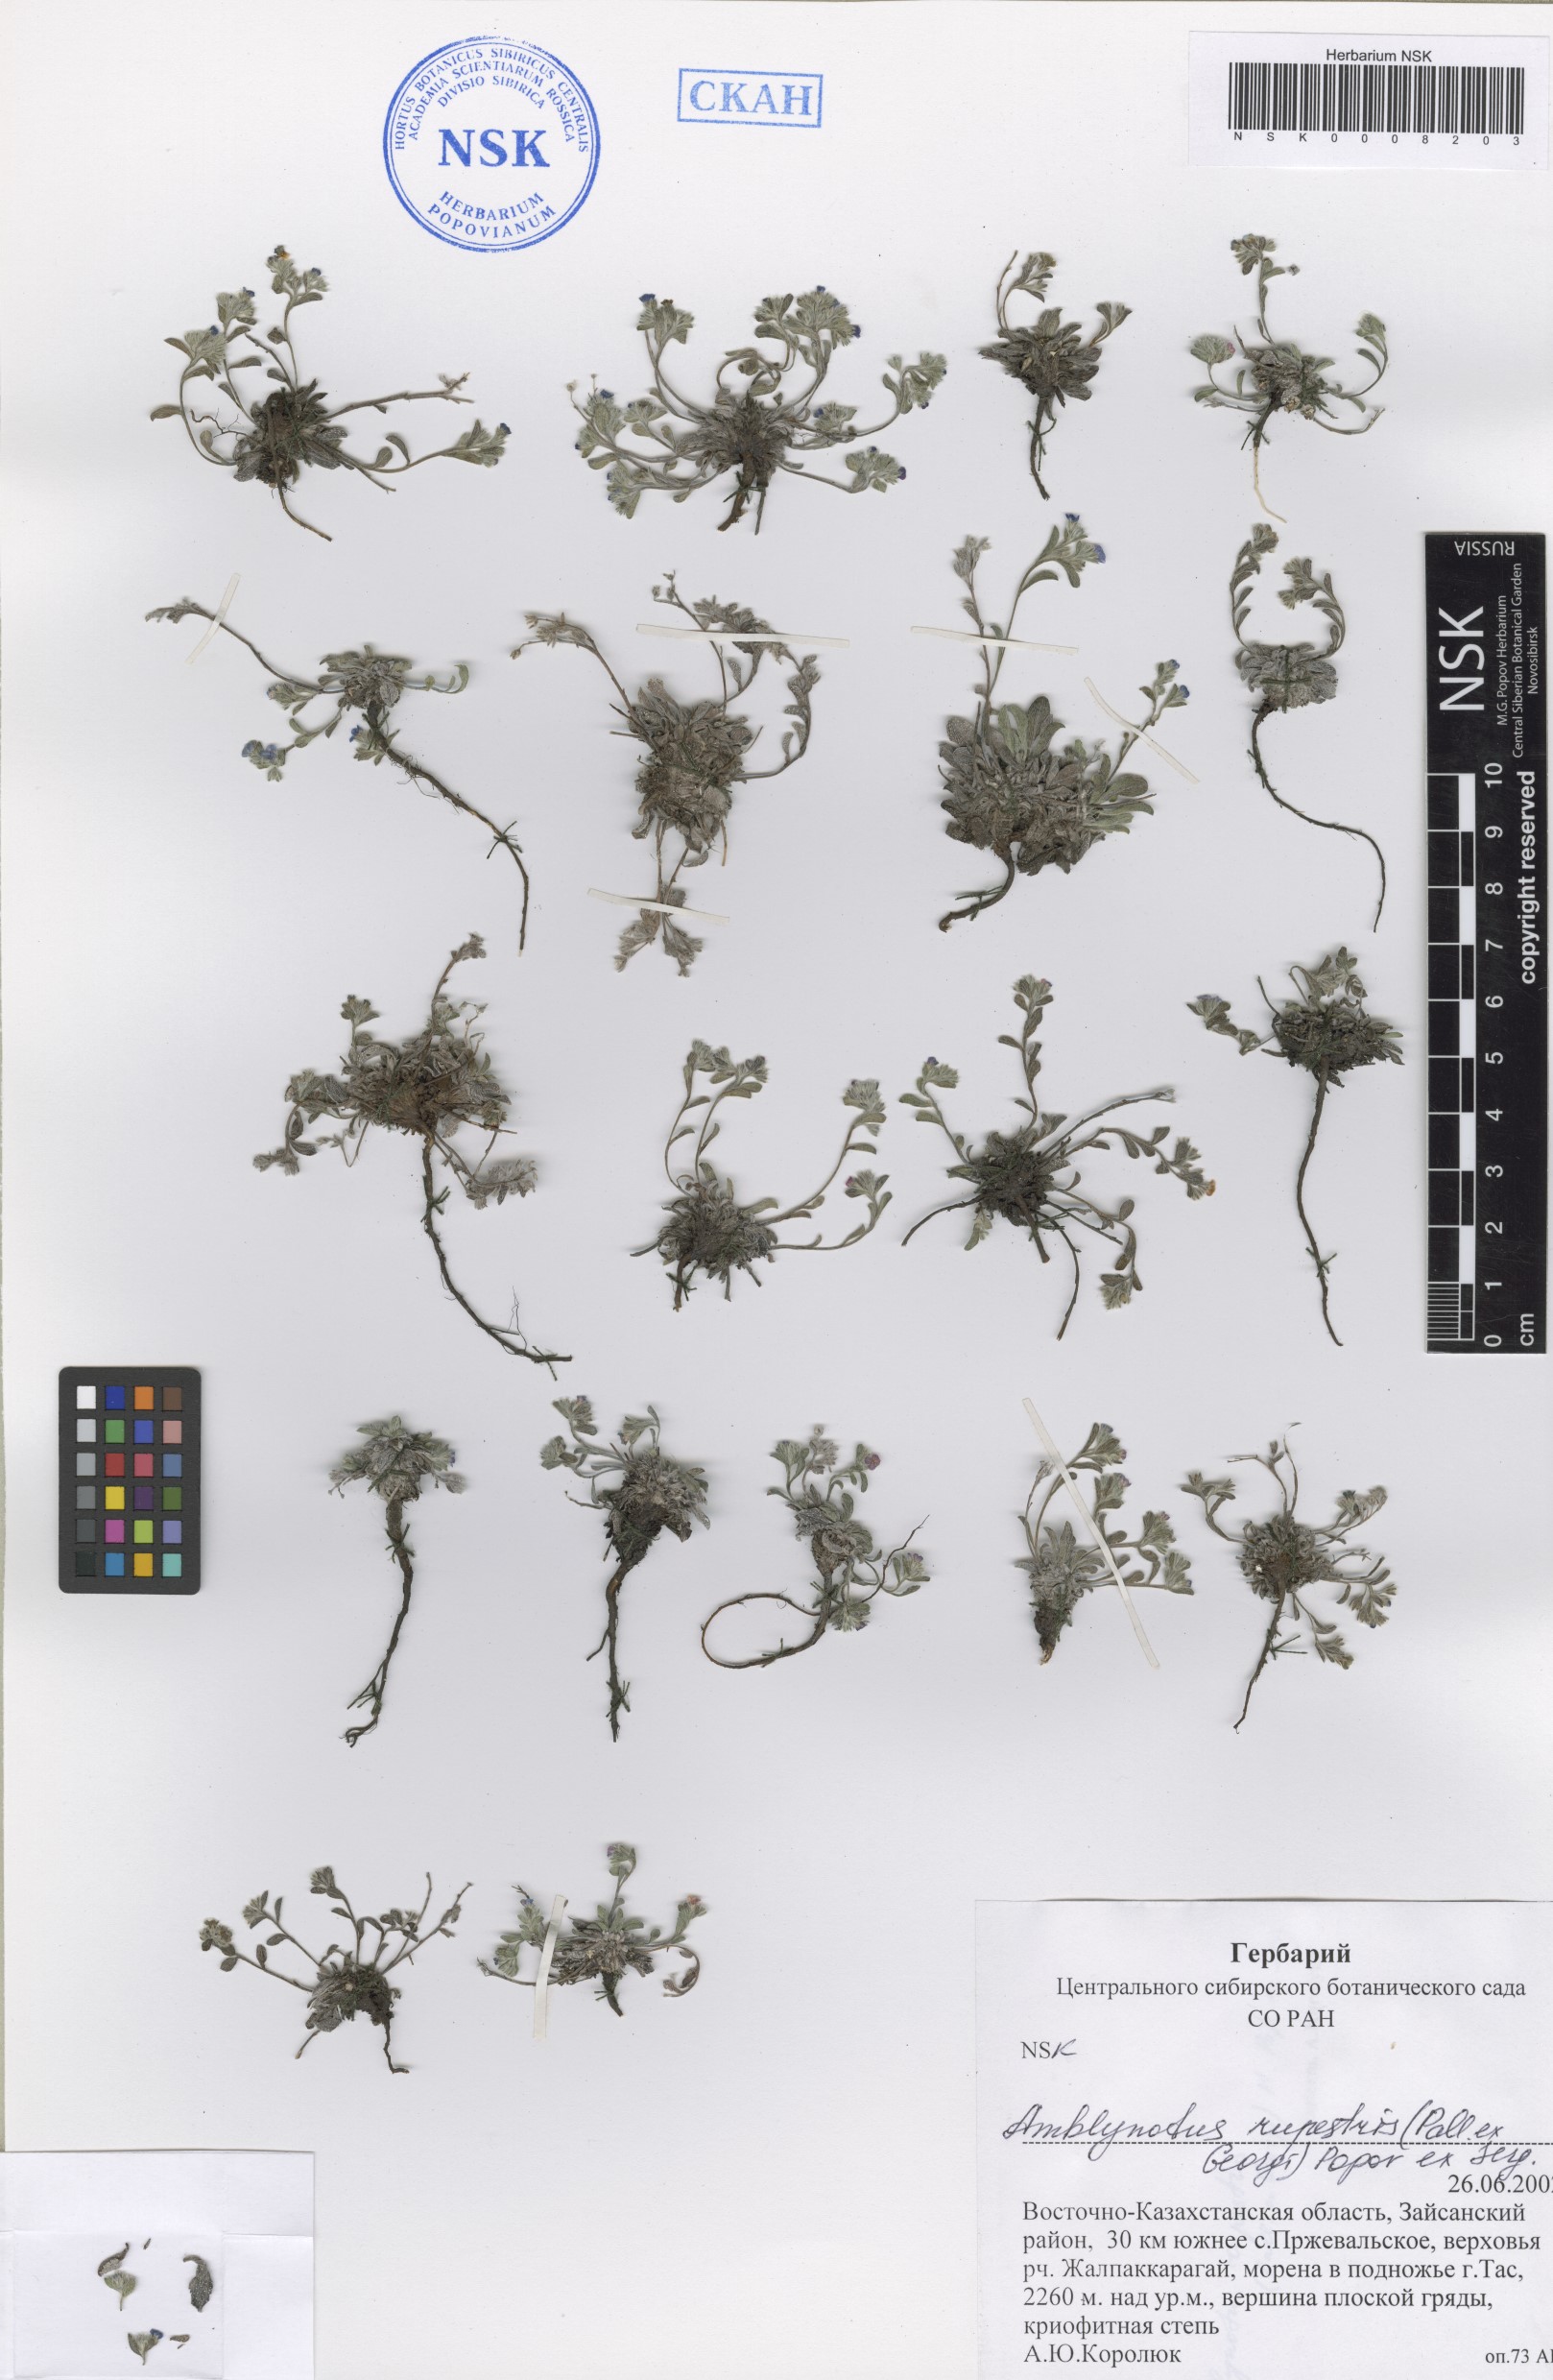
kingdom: Plantae
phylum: Tracheophyta
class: Magnoliopsida
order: Boraginales
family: Boraginaceae
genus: Eritrichium
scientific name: Eritrichium rupestre
